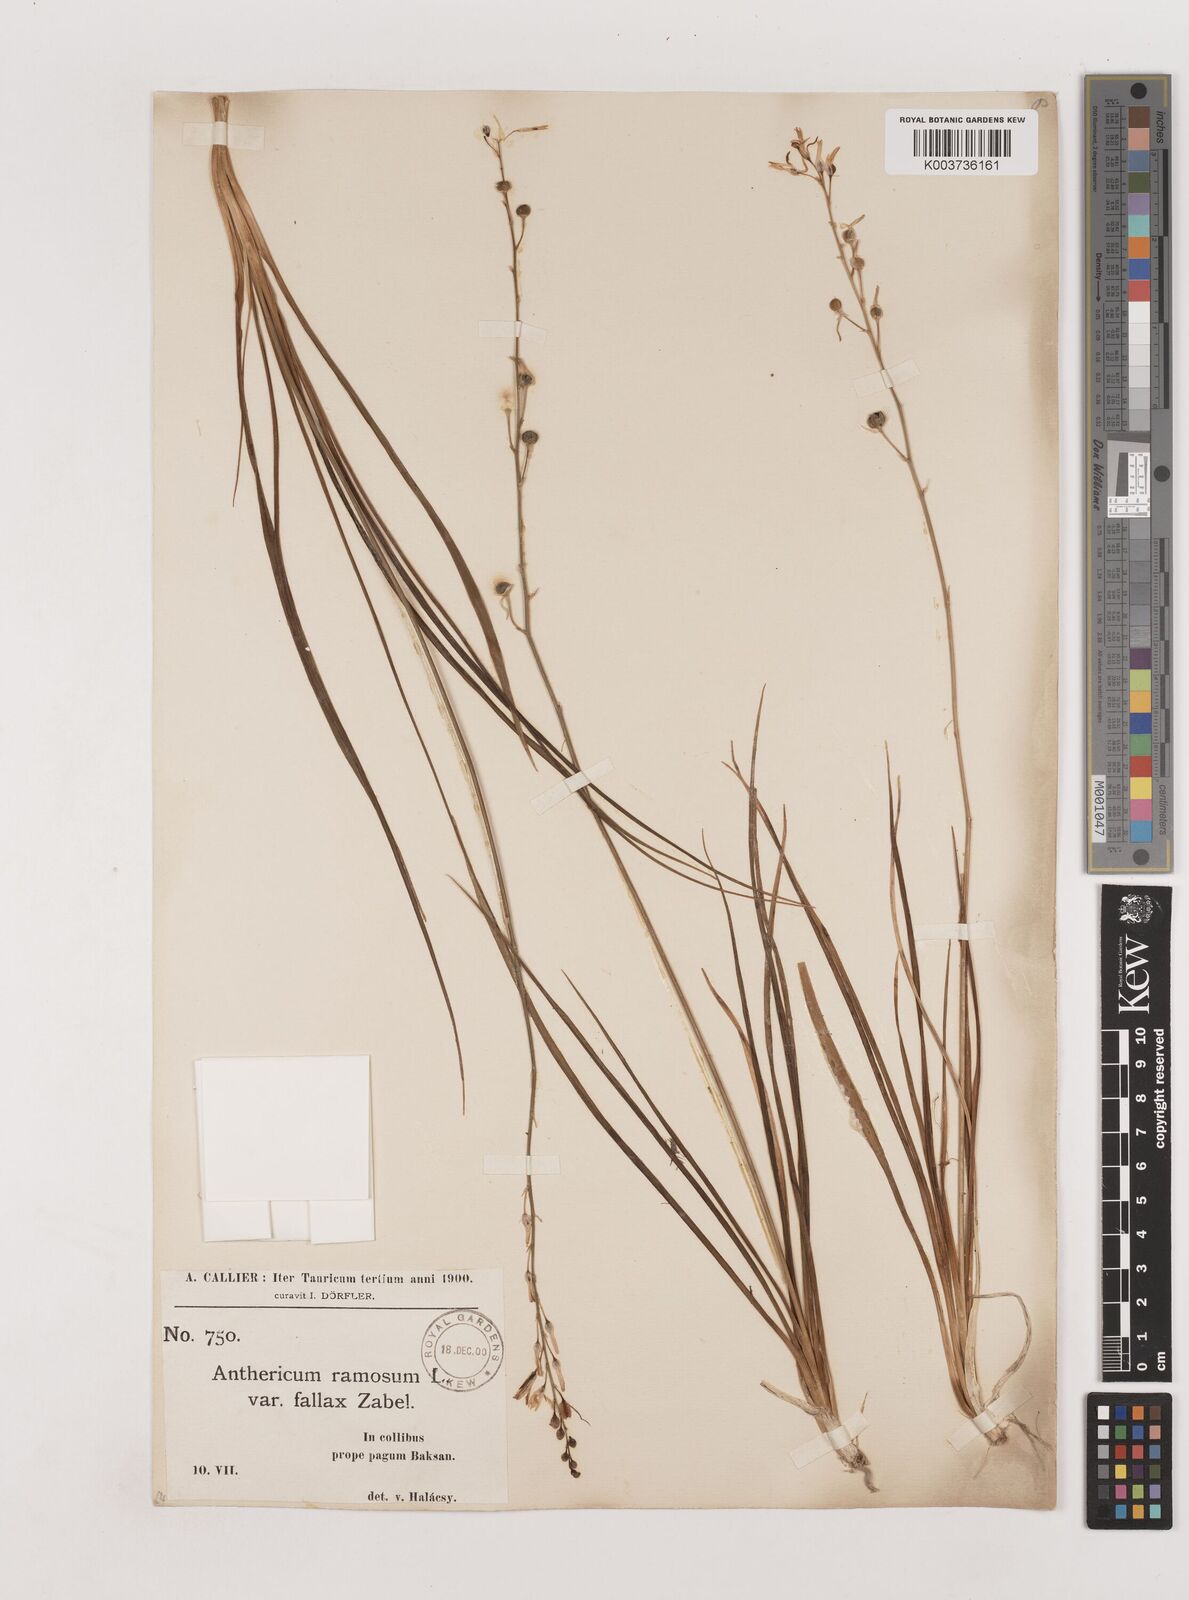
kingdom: Plantae
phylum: Tracheophyta
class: Liliopsida
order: Asparagales
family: Asparagaceae
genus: Anthericum
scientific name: Anthericum ramosum
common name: Branched st. bernard's-lily
